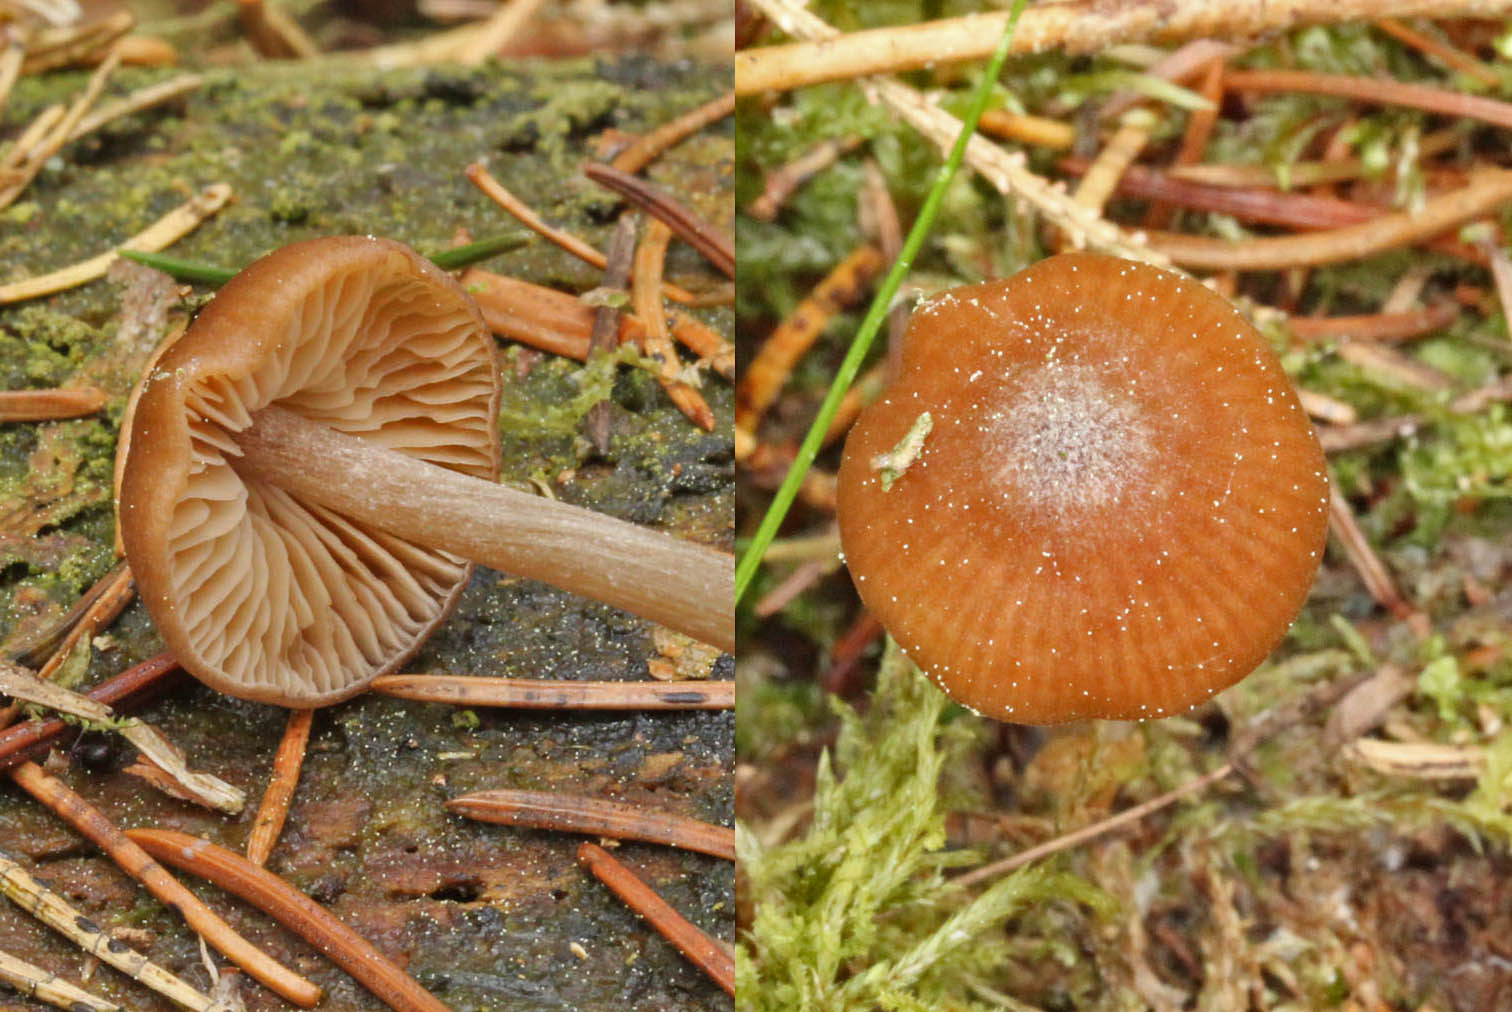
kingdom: Fungi
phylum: Basidiomycota
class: Agaricomycetes
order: Agaricales
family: Entolomataceae
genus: Entoloma
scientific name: Entoloma cetratum
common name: voks-rødblad
